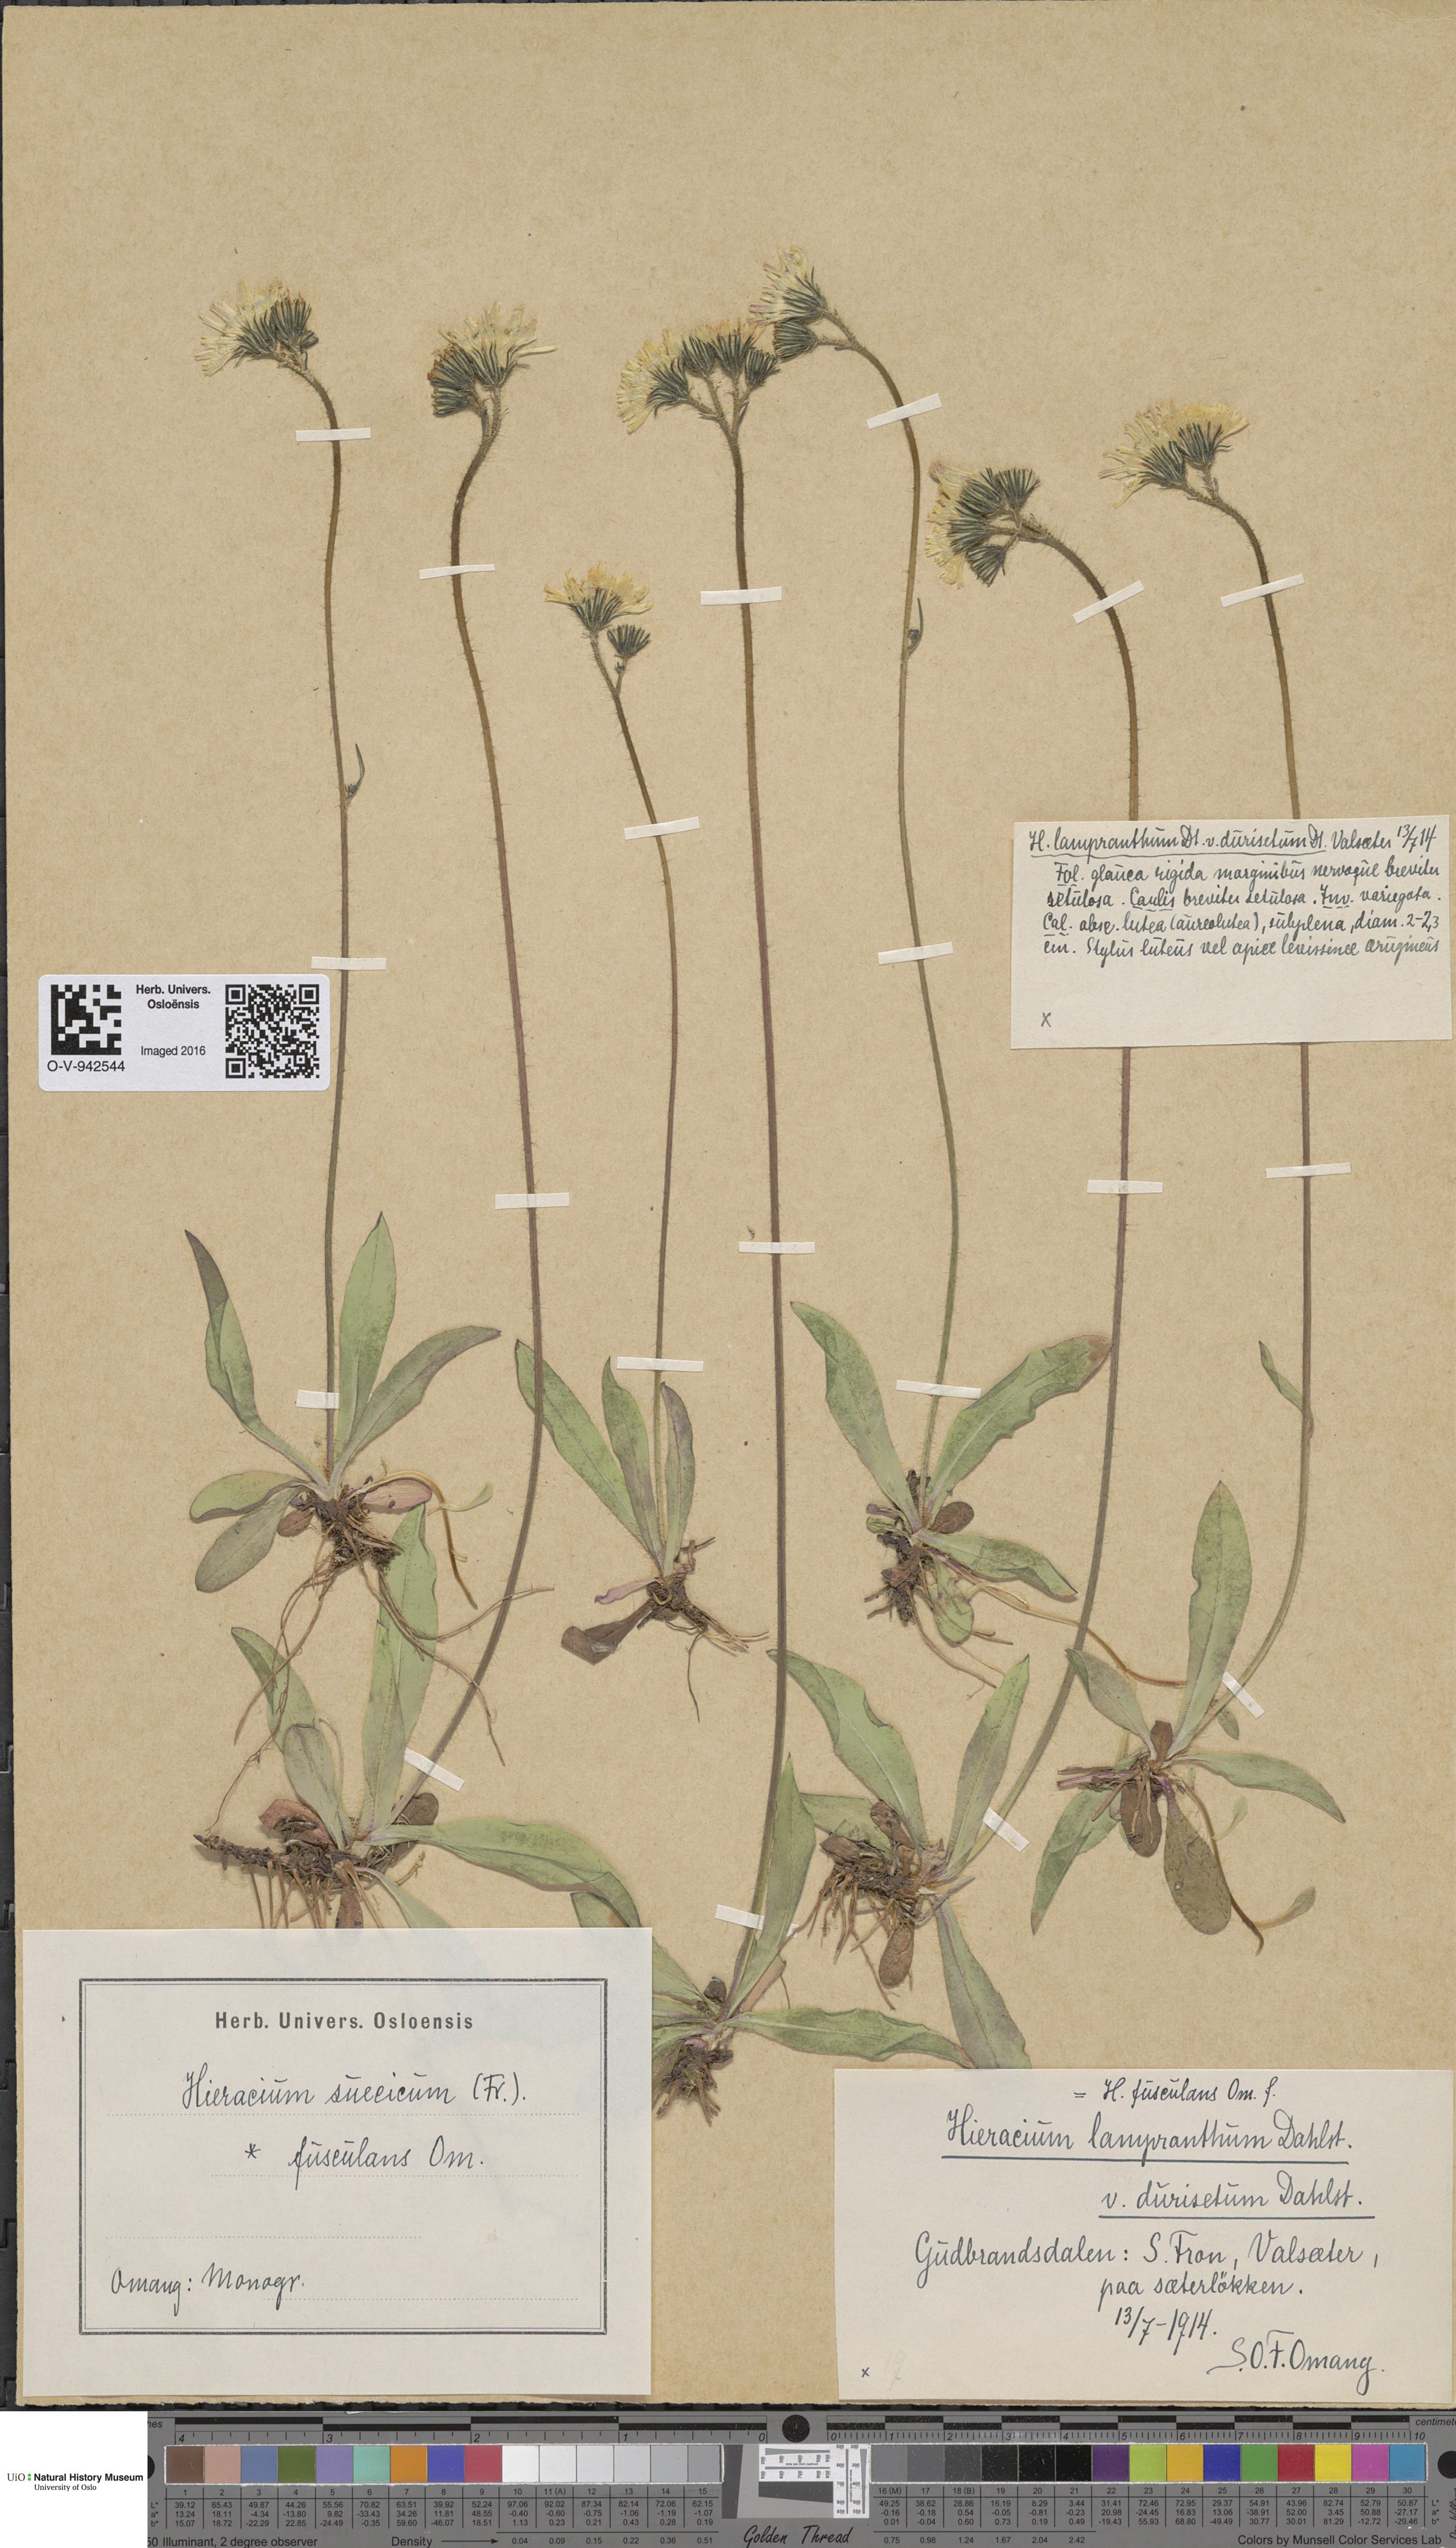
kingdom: Plantae
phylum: Tracheophyta
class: Magnoliopsida
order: Asterales
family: Asteraceae
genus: Pilosella
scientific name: Pilosella dubia
